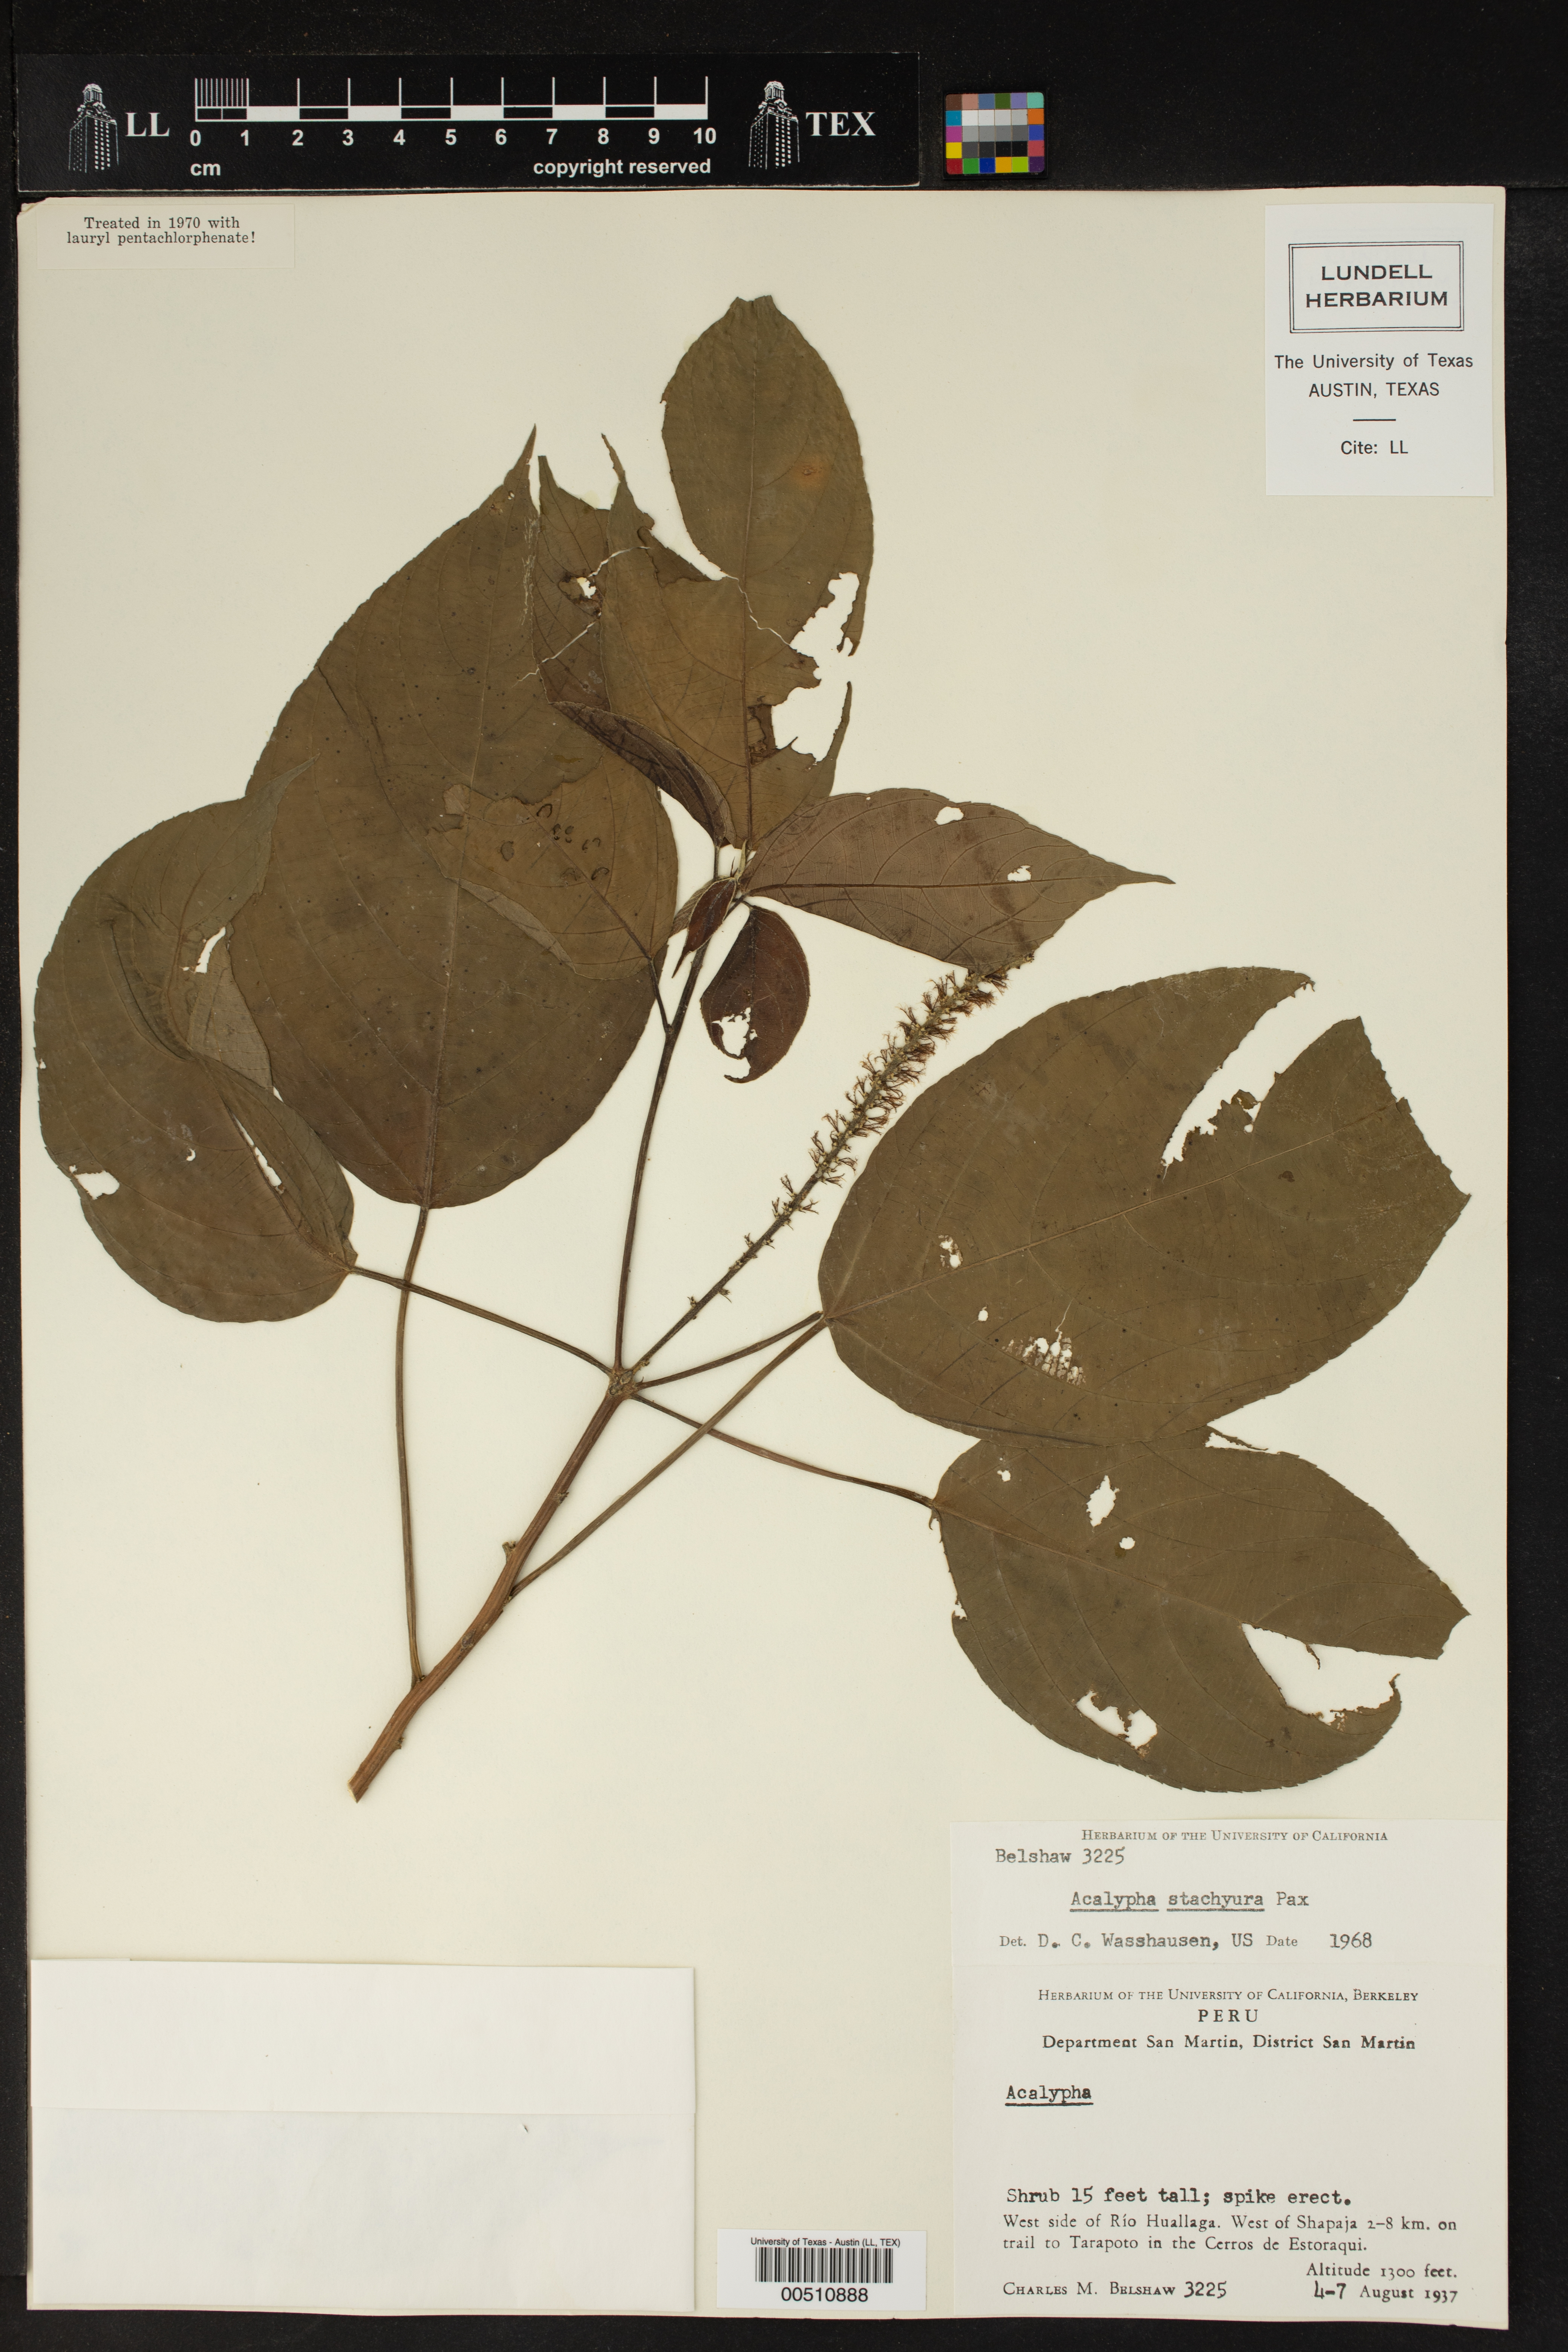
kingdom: Plantae
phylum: Tracheophyta
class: Magnoliopsida
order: Malpighiales
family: Euphorbiaceae
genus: Acalypha
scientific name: Acalypha stachyura
